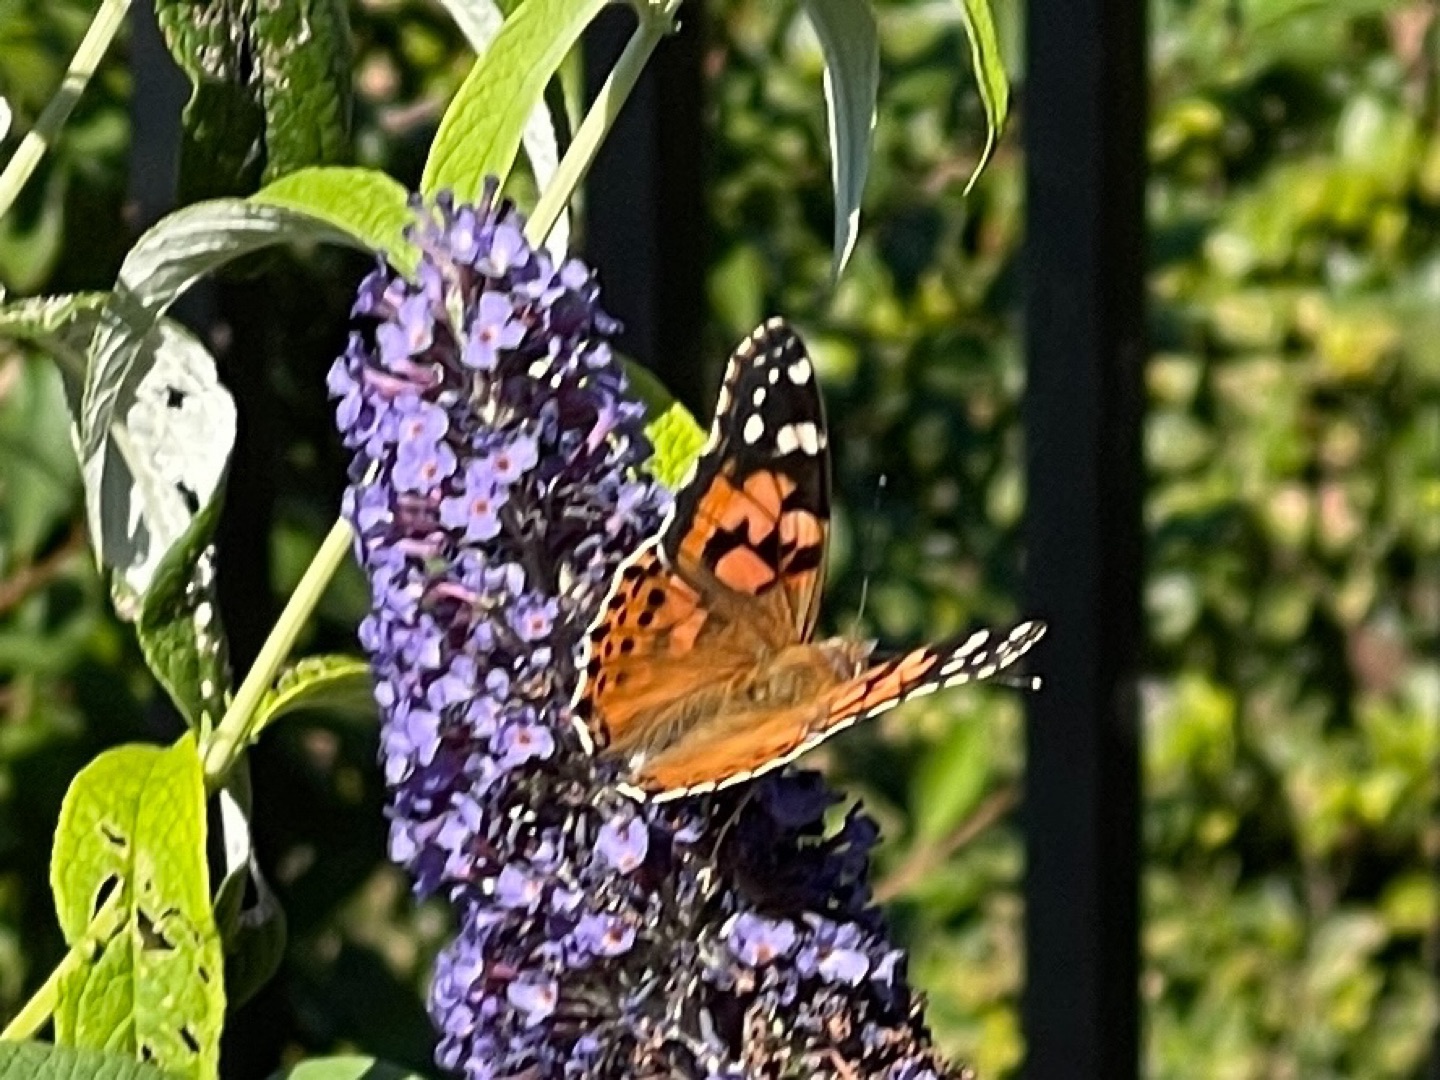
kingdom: Animalia
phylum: Arthropoda
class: Insecta
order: Lepidoptera
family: Nymphalidae
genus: Vanessa
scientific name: Vanessa cardui
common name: Tidselsommerfugl
